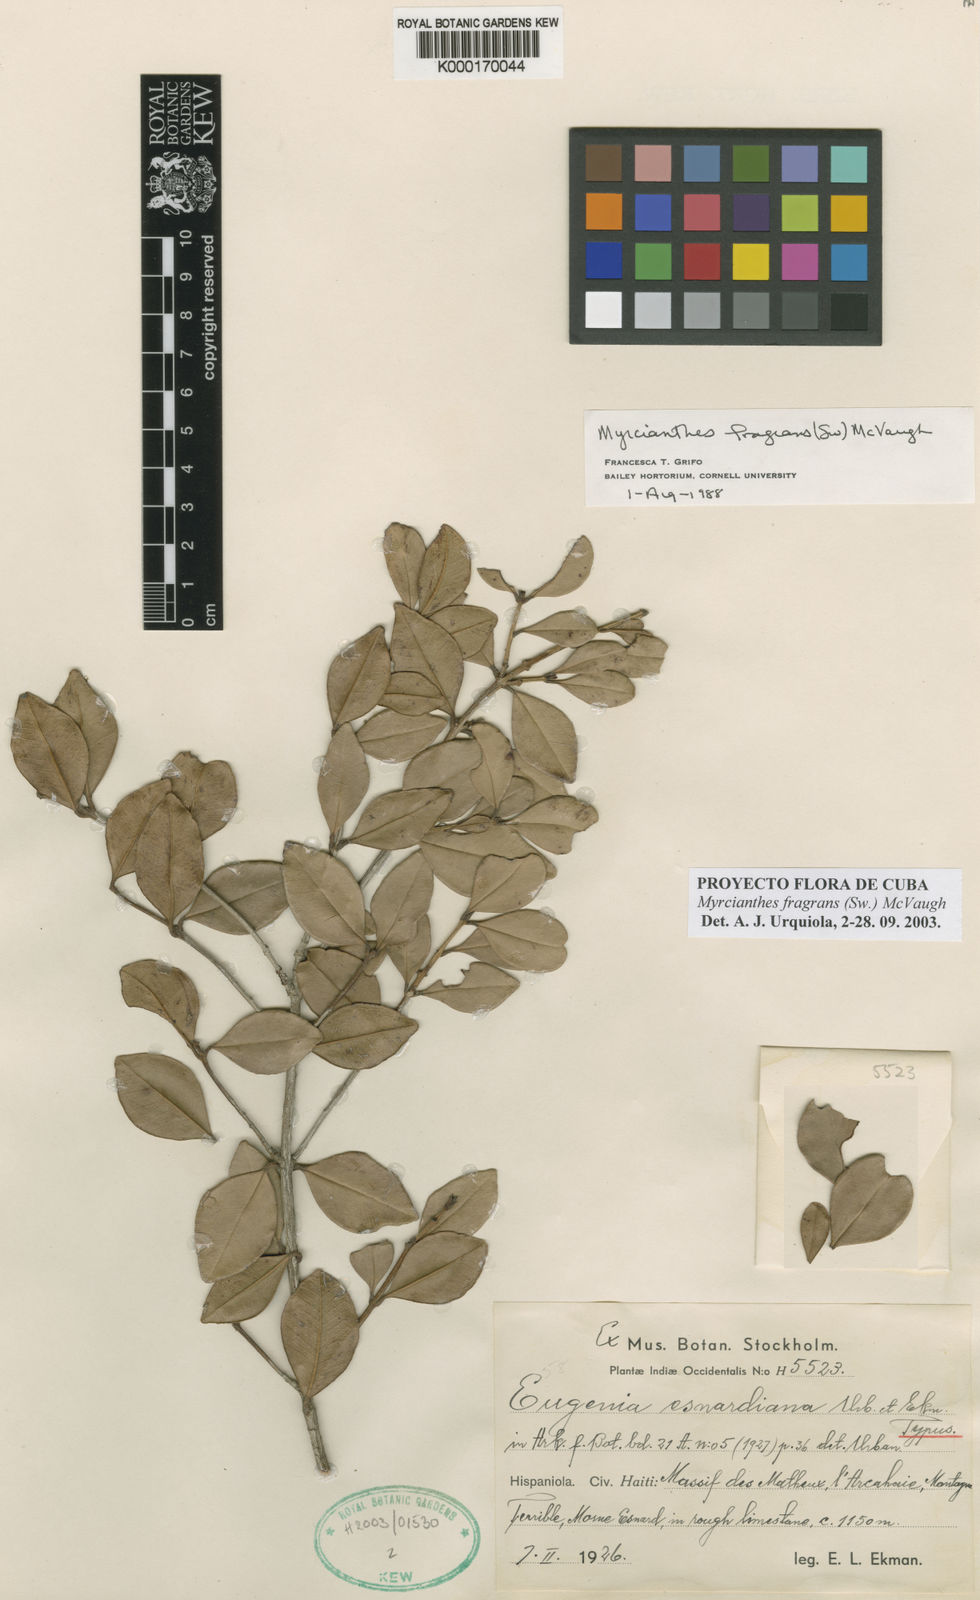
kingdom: Plantae
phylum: Tracheophyta
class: Magnoliopsida
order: Myrtales
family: Myrtaceae
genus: Myrcianthes
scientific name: Myrcianthes esnardiana
